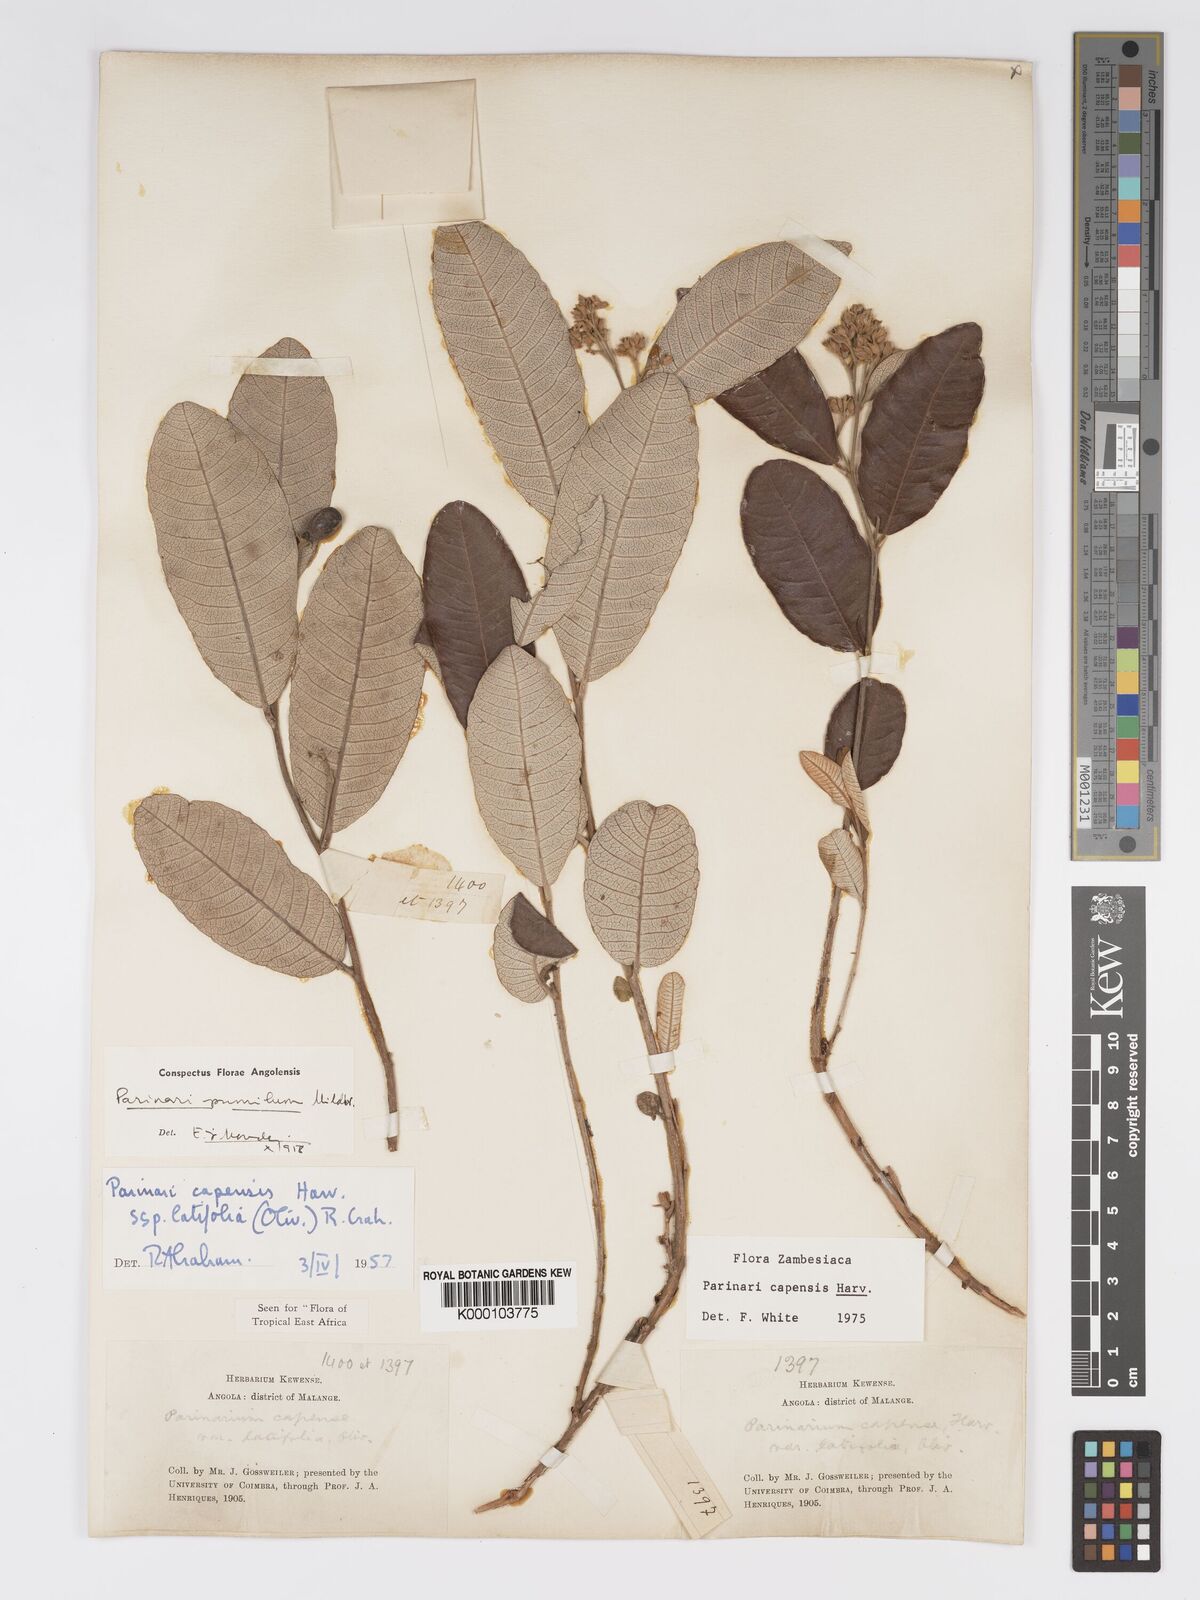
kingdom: Plantae
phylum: Tracheophyta
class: Magnoliopsida
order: Malpighiales
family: Chrysobalanaceae
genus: Parinari
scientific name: Parinari capensis
